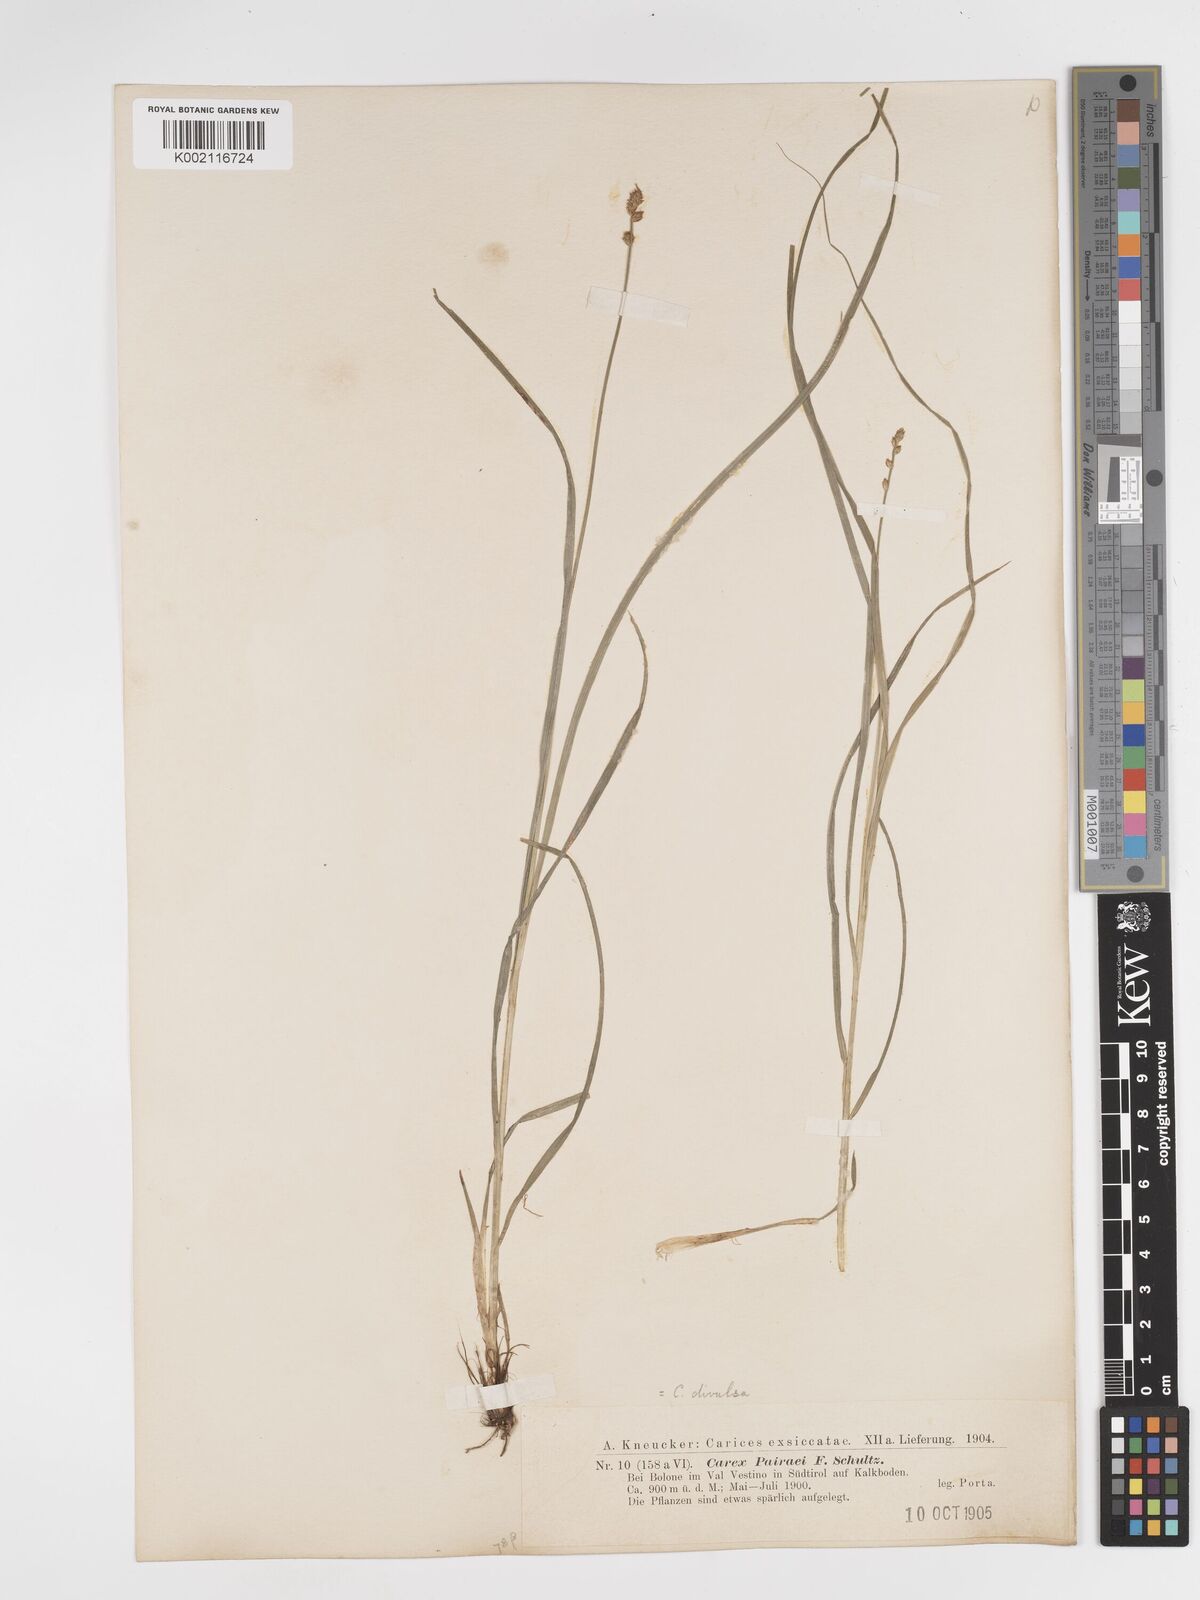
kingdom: Plantae
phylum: Tracheophyta
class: Liliopsida
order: Poales
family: Cyperaceae
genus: Carex
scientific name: Carex divulsa
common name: Grassland sedge
